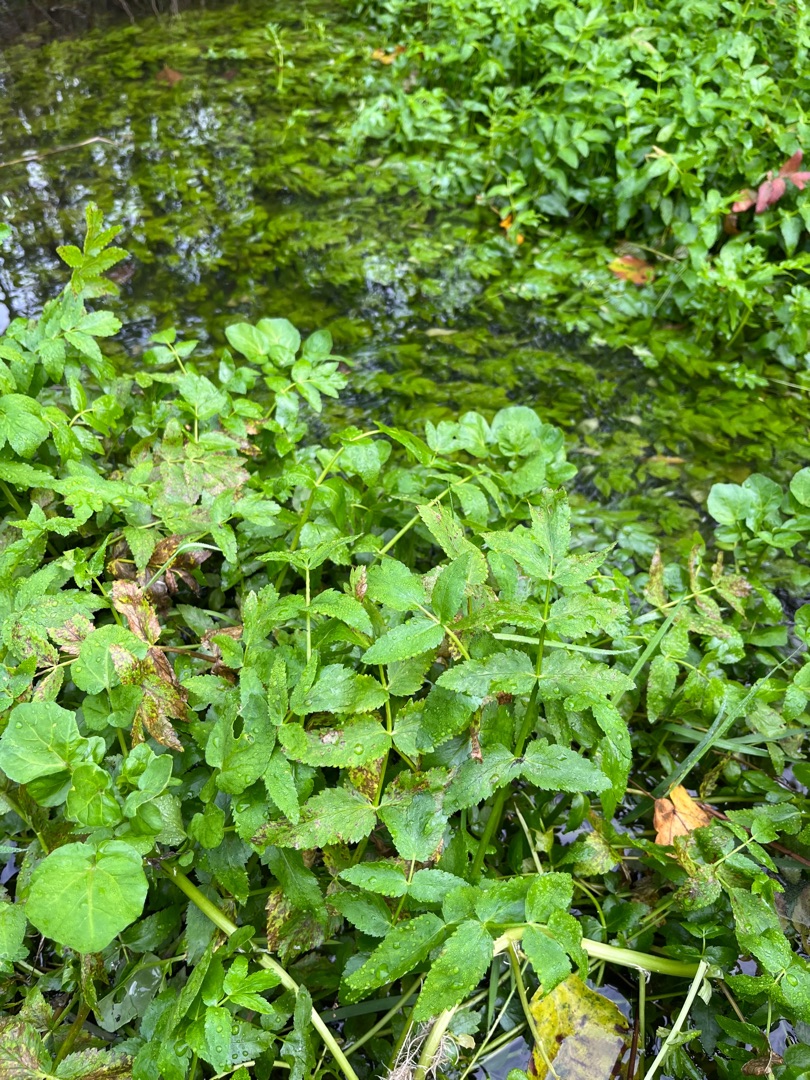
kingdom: Plantae
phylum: Tracheophyta
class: Magnoliopsida
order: Apiales
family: Apiaceae
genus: Berula
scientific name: Berula erecta
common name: Sideskærm
